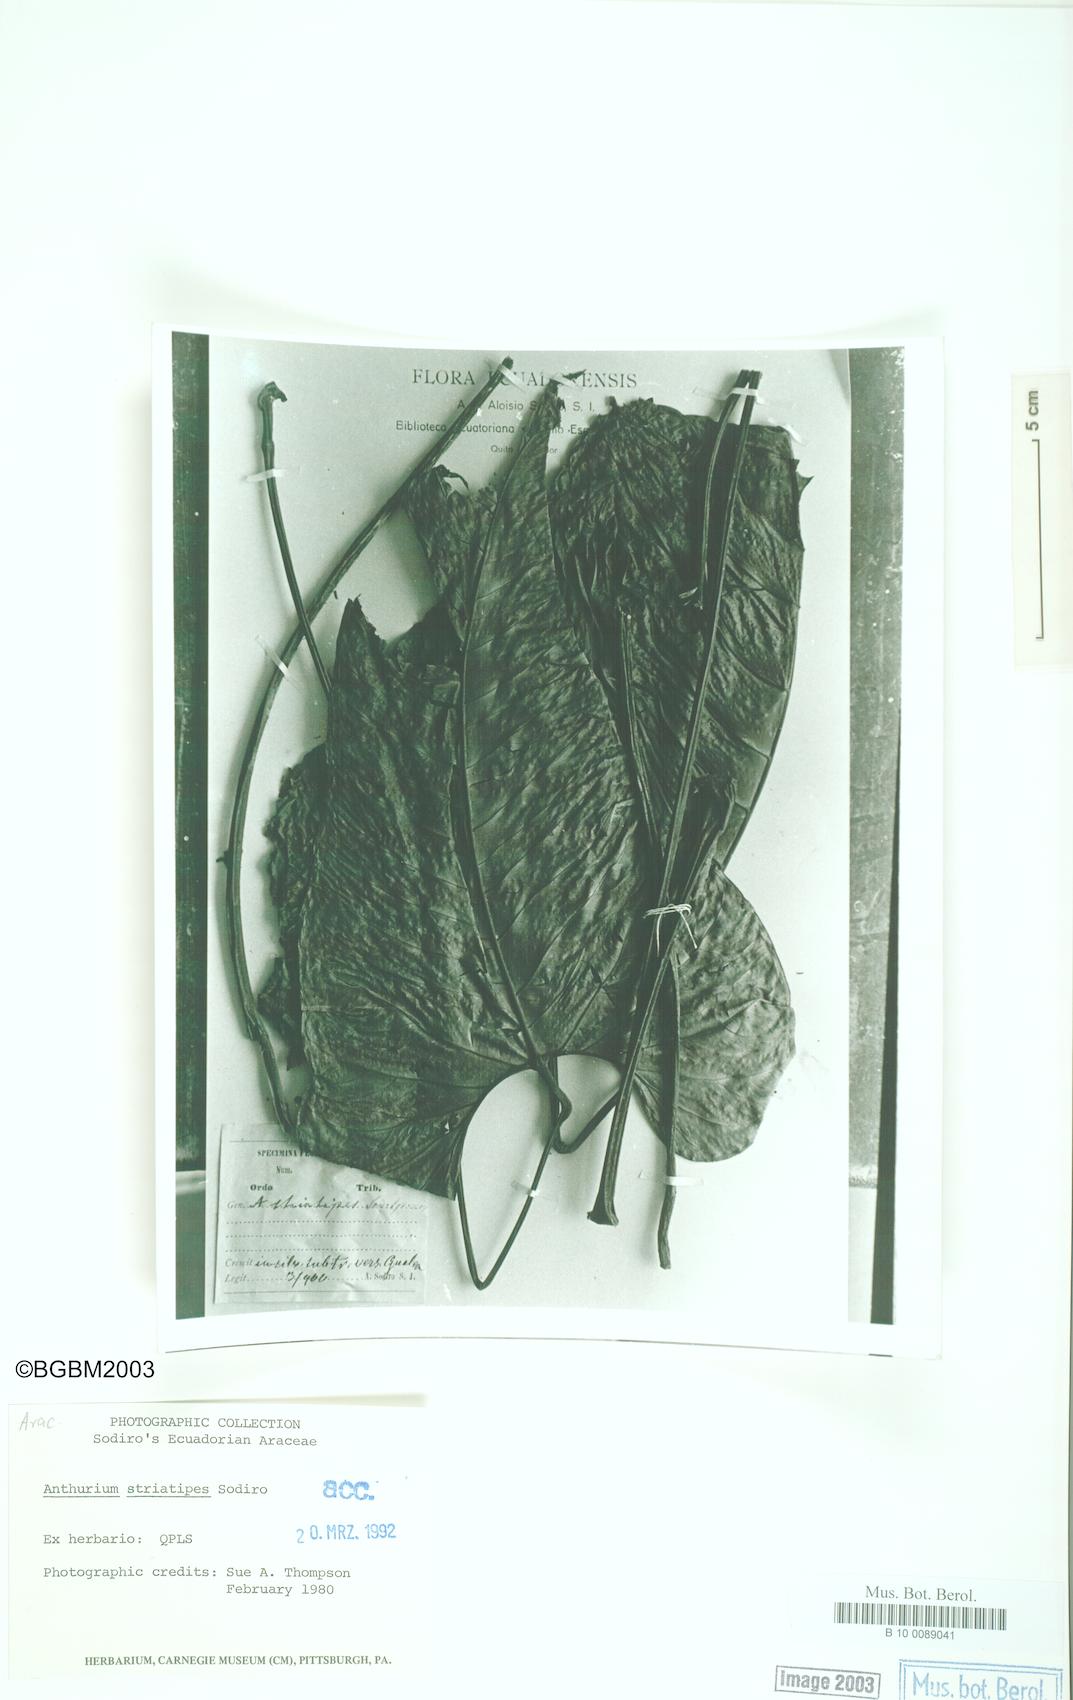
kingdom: Plantae
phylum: Tracheophyta
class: Liliopsida
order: Alismatales
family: Araceae
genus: Anthurium
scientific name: Anthurium striatipes
